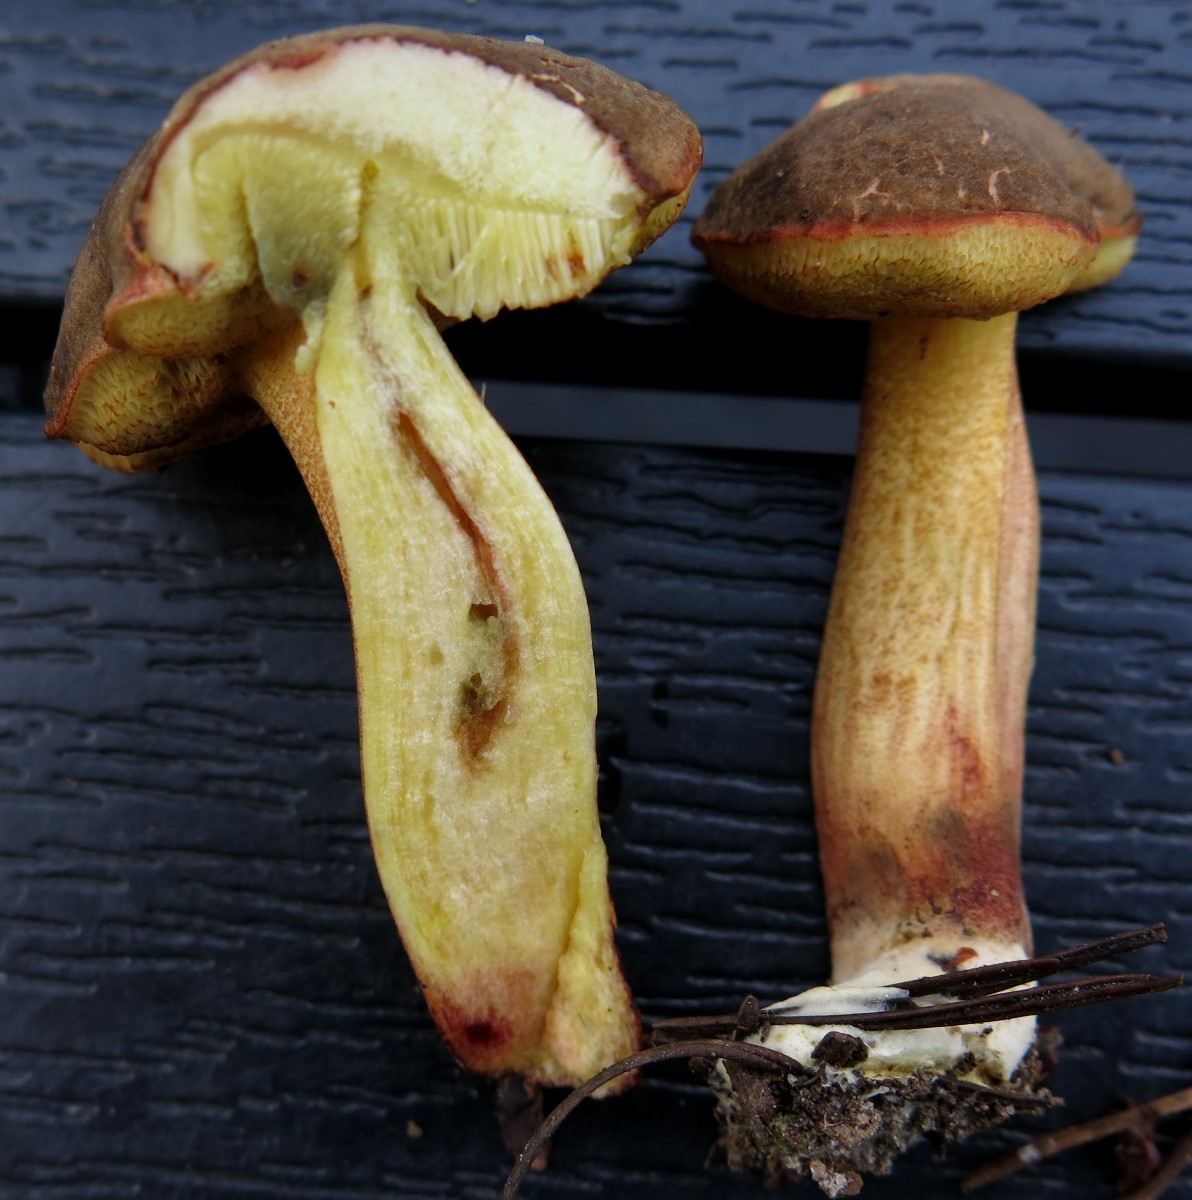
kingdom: Fungi
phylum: Basidiomycota
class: Agaricomycetes
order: Boletales
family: Boletaceae
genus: Xerocomellus
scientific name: Xerocomellus pruinatus
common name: dugget rørhat
